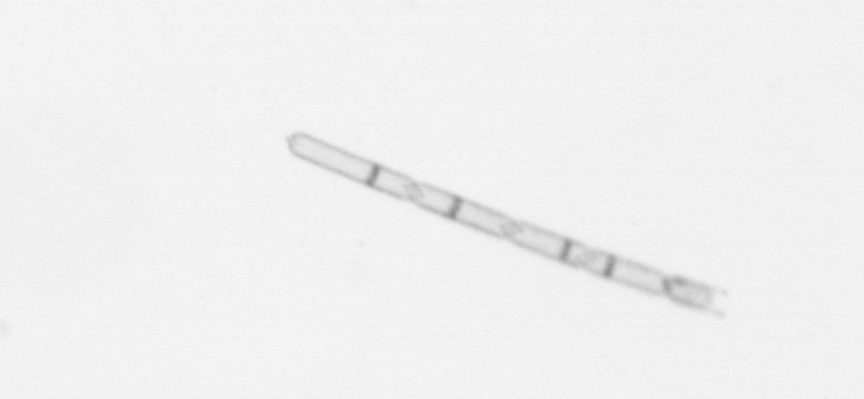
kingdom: Chromista
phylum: Ochrophyta
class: Bacillariophyceae
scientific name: Bacillariophyceae
